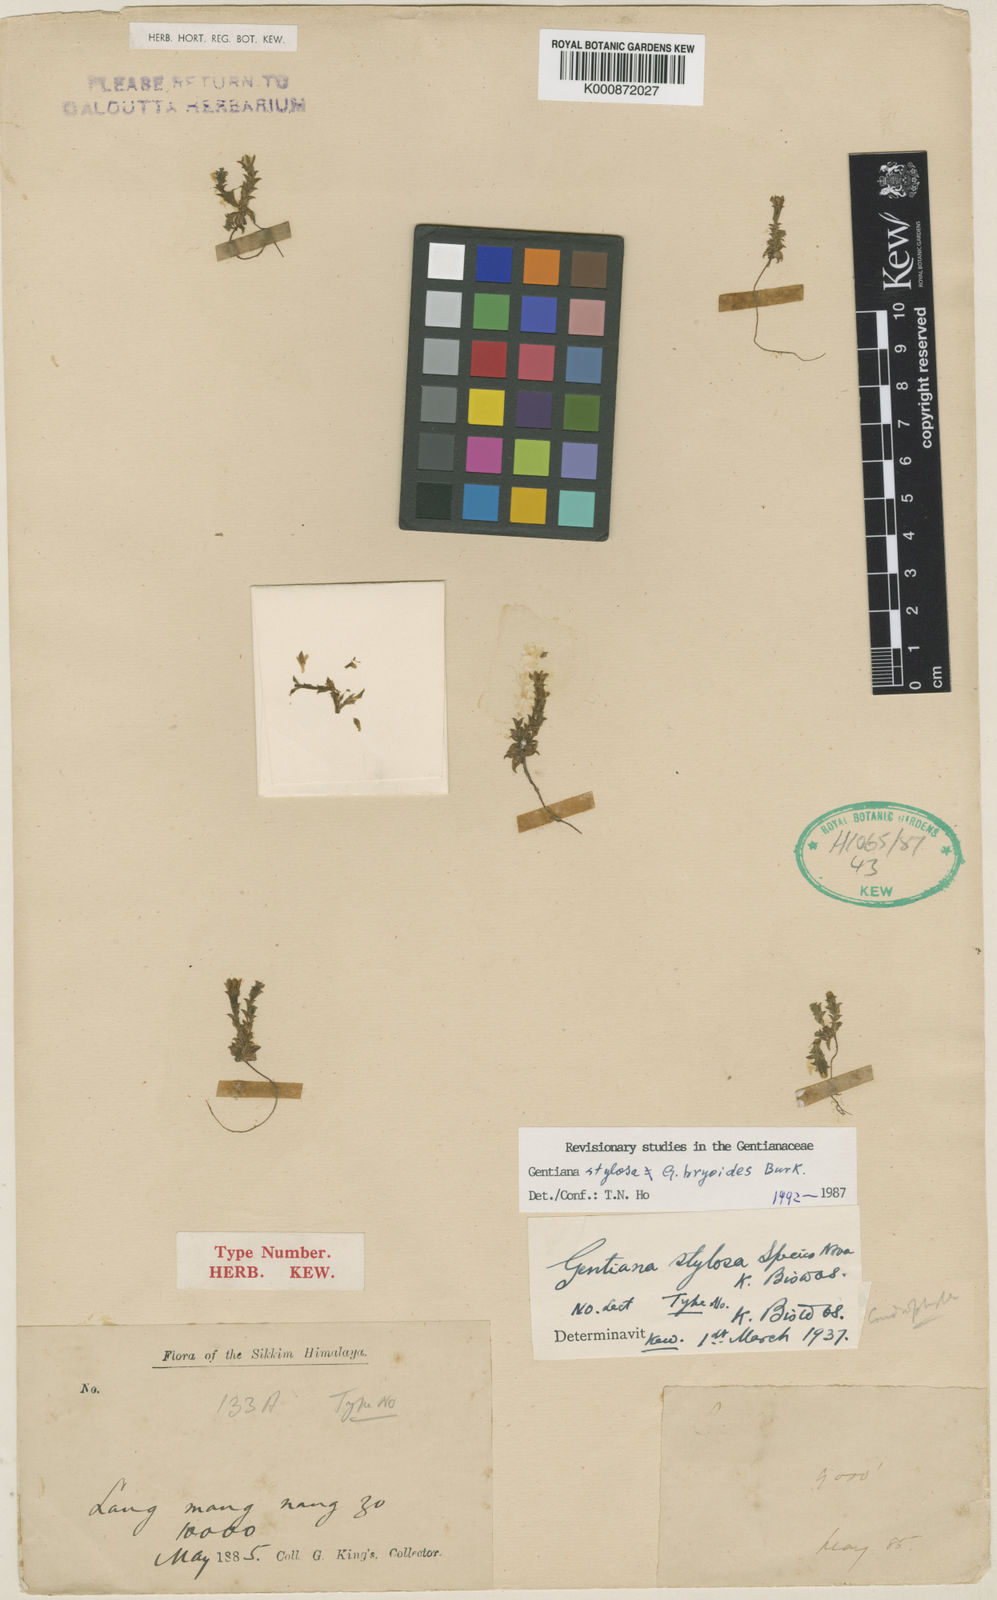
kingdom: Plantae
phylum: Tracheophyta
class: Magnoliopsida
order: Gentianales
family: Gentianaceae
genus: Gentiana
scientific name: Gentiana bryoides
